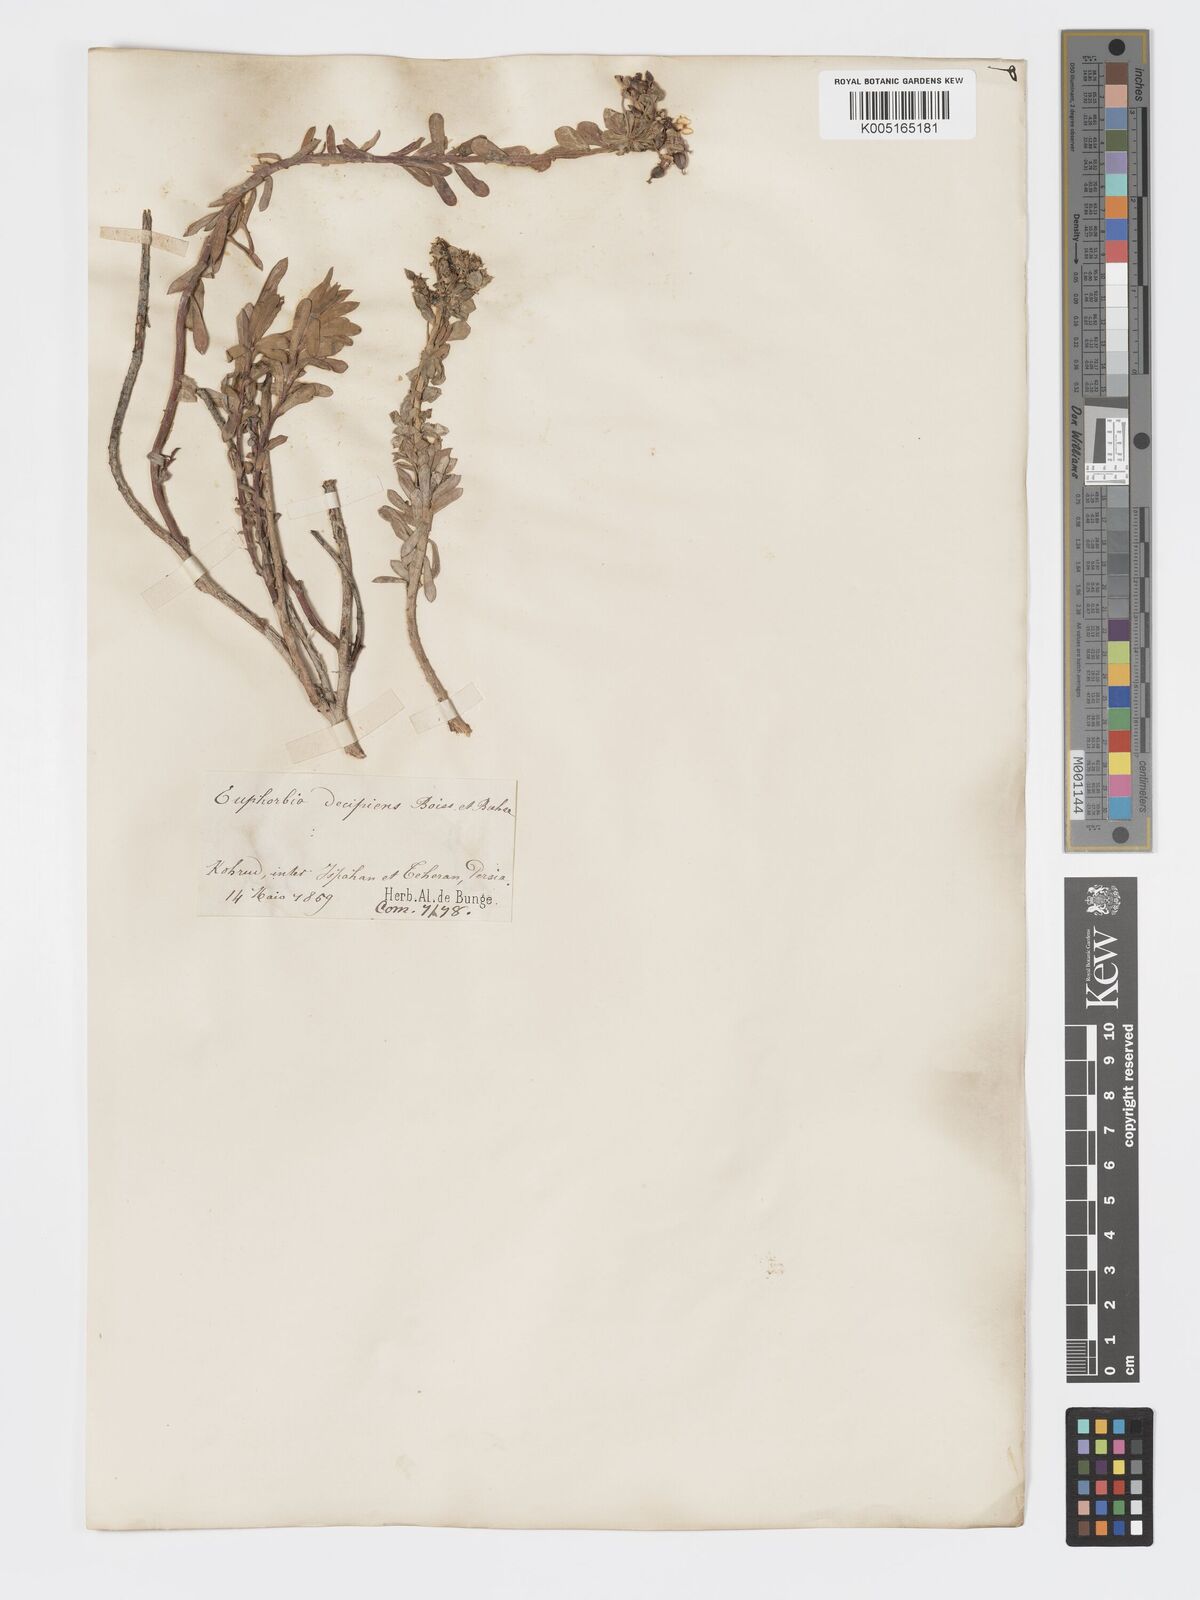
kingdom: Plantae
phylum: Tracheophyta
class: Magnoliopsida
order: Malpighiales
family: Euphorbiaceae
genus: Euphorbia
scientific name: Euphorbia polycaulis
